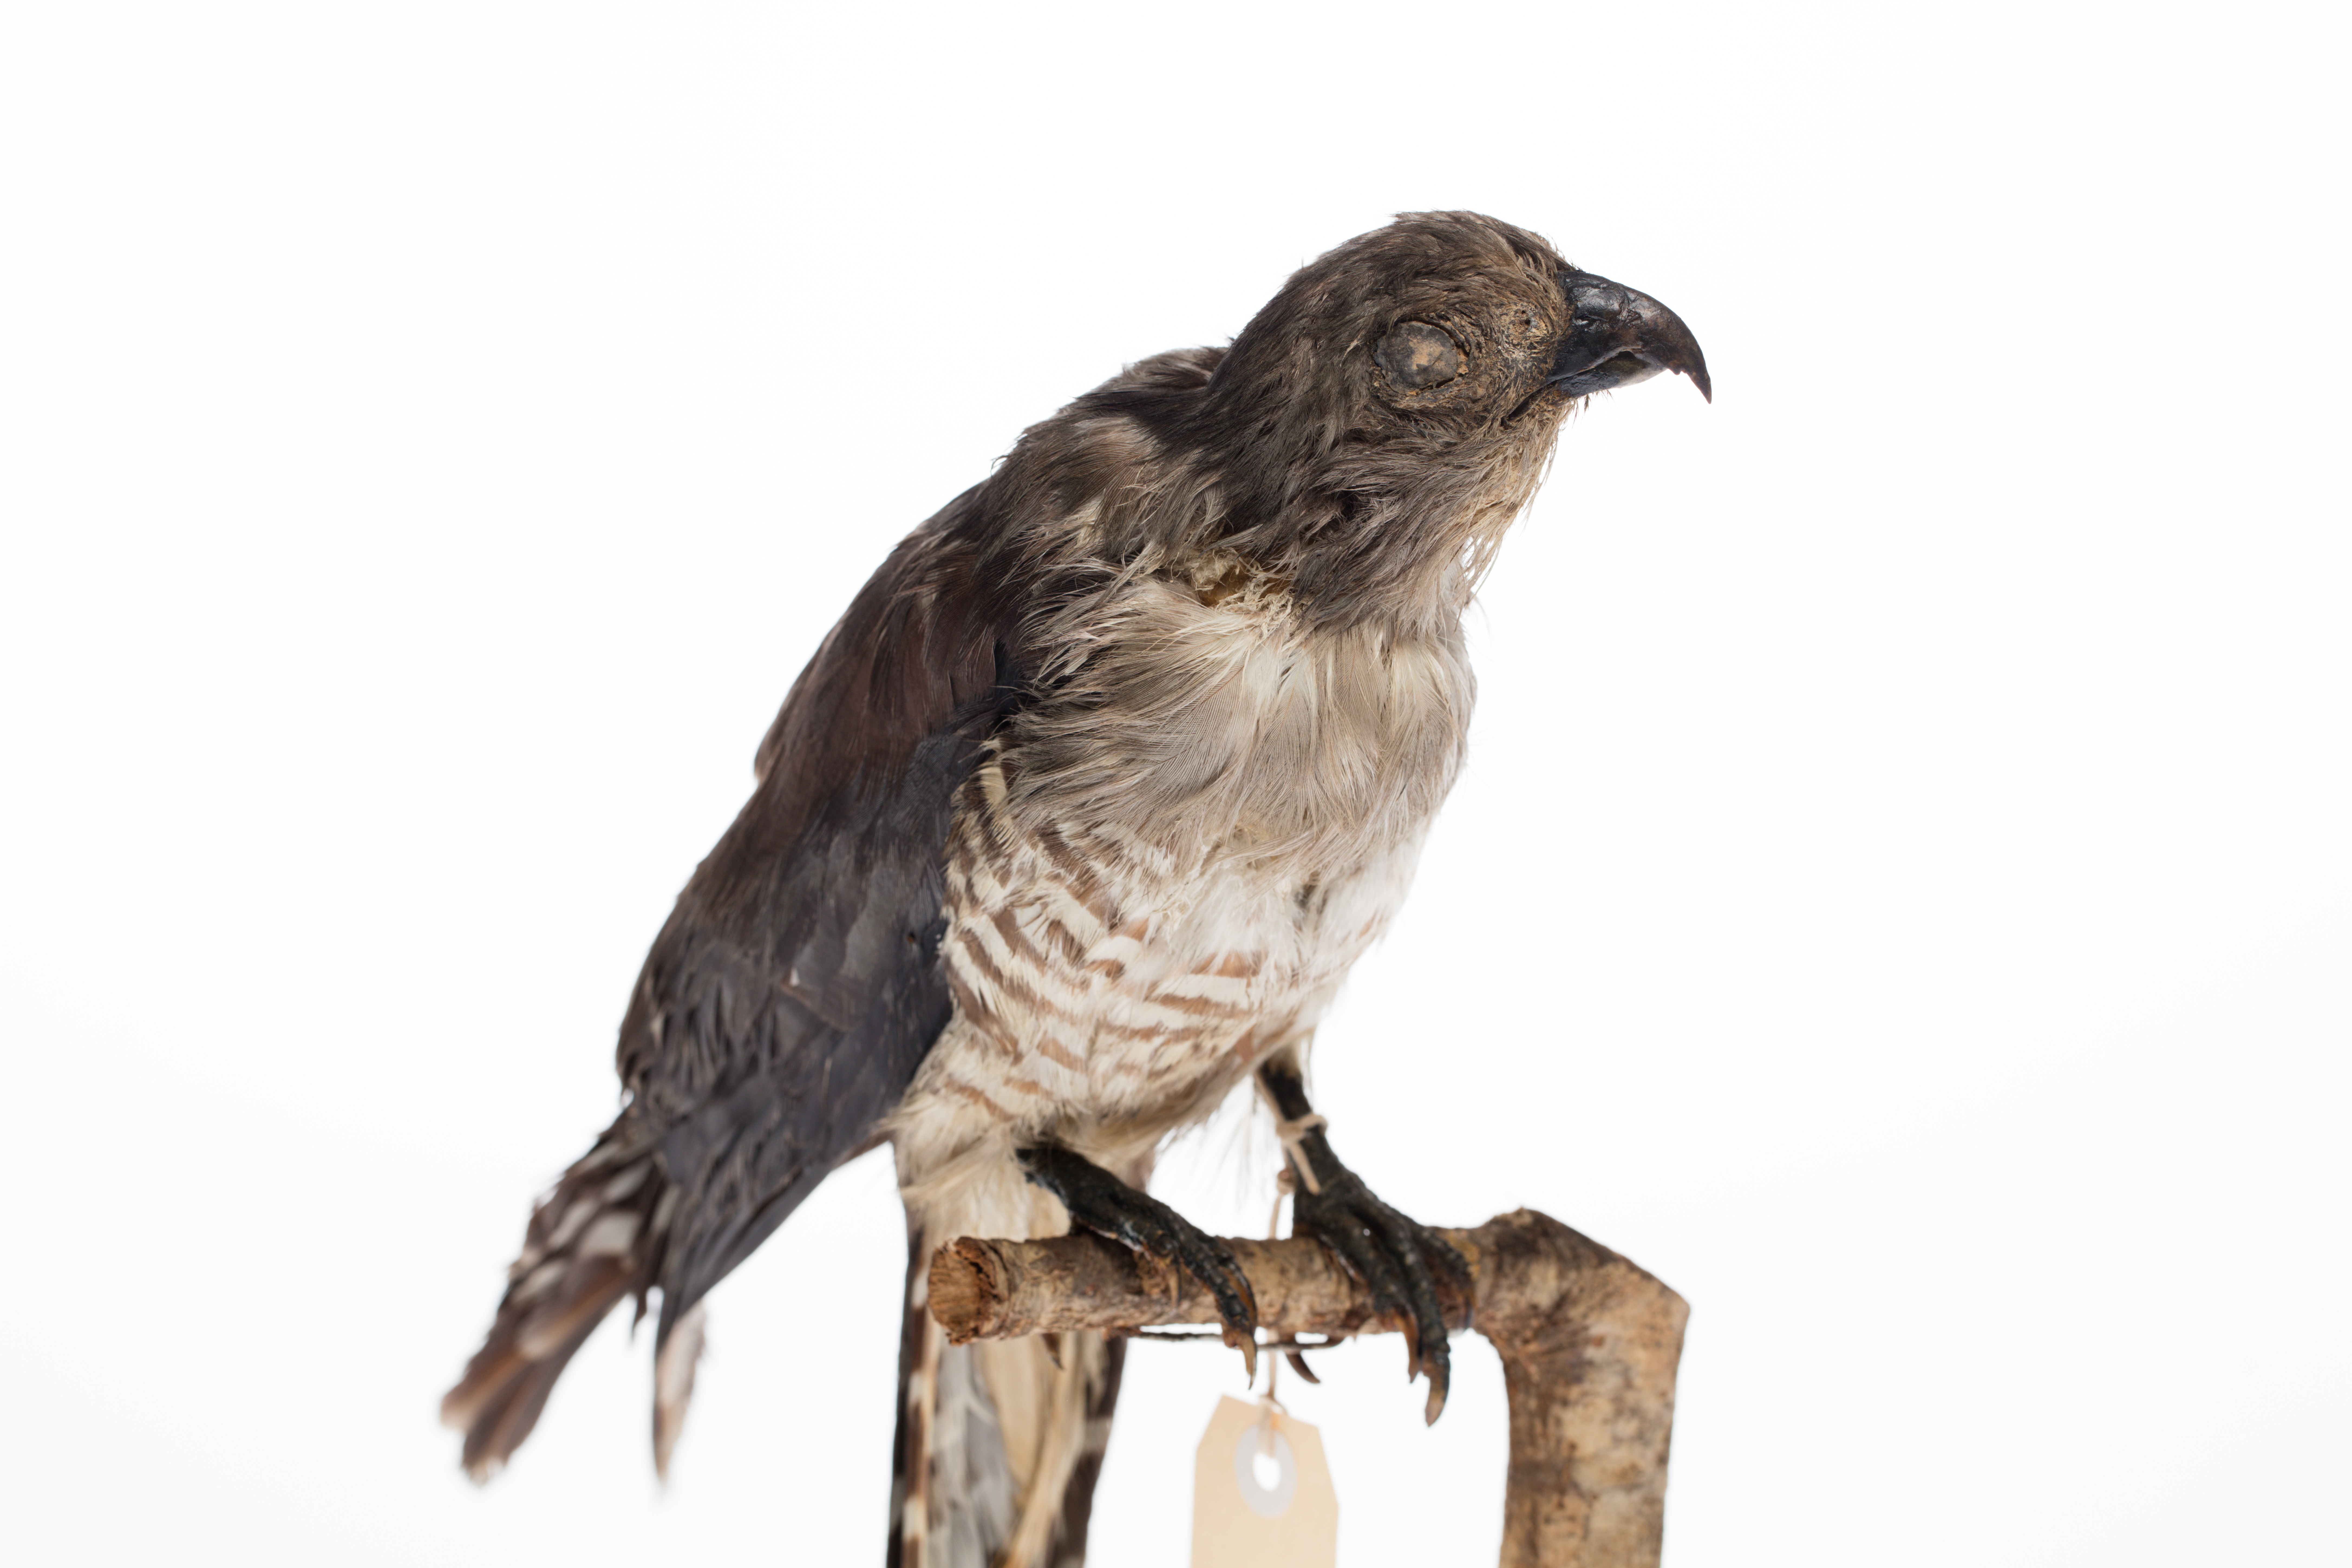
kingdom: Animalia
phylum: Chordata
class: Aves
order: Accipitriformes
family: Accipitridae
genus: Aviceda
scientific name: Aviceda subcristata
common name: Pacific baza
